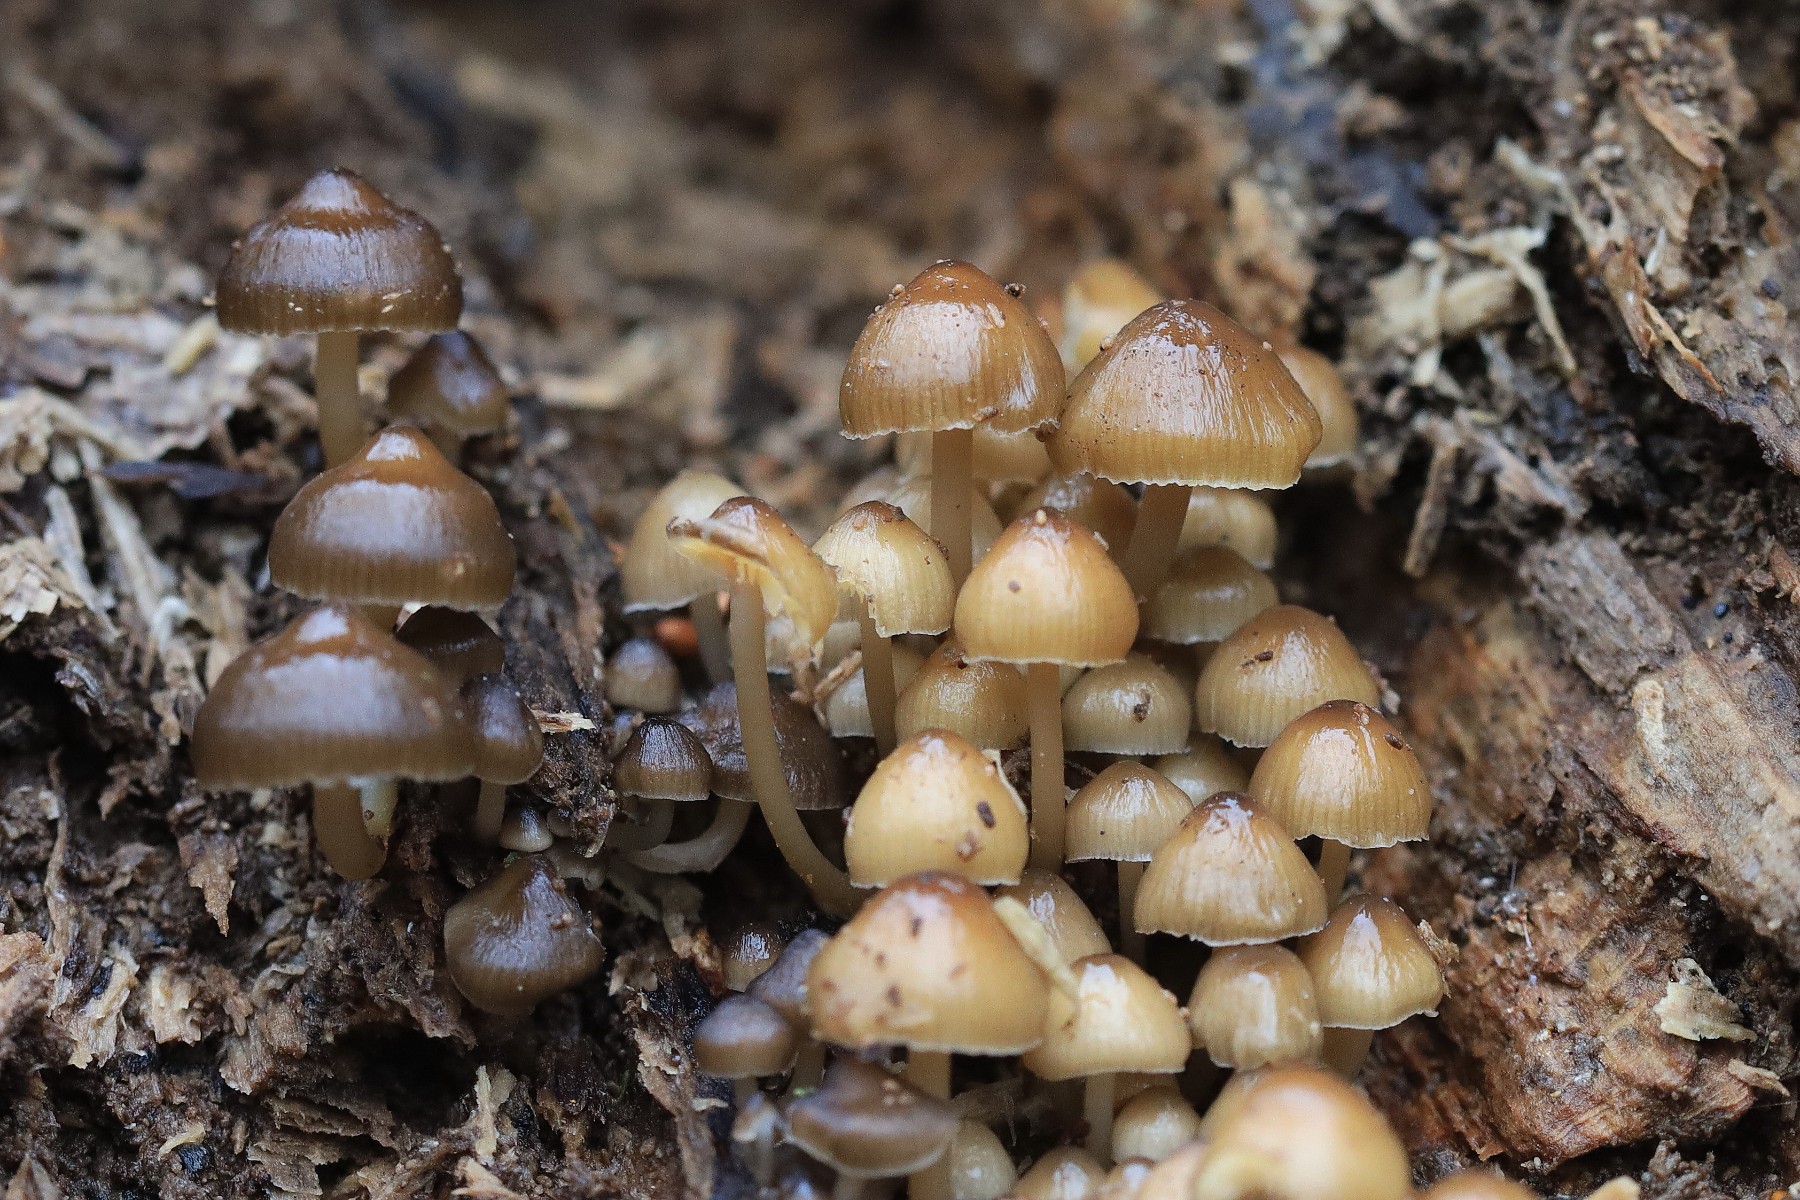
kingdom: Fungi
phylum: Basidiomycota
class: Agaricomycetes
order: Agaricales
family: Mycenaceae
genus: Mycena
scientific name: Mycena tintinnabulum
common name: vinter-huesvamp
